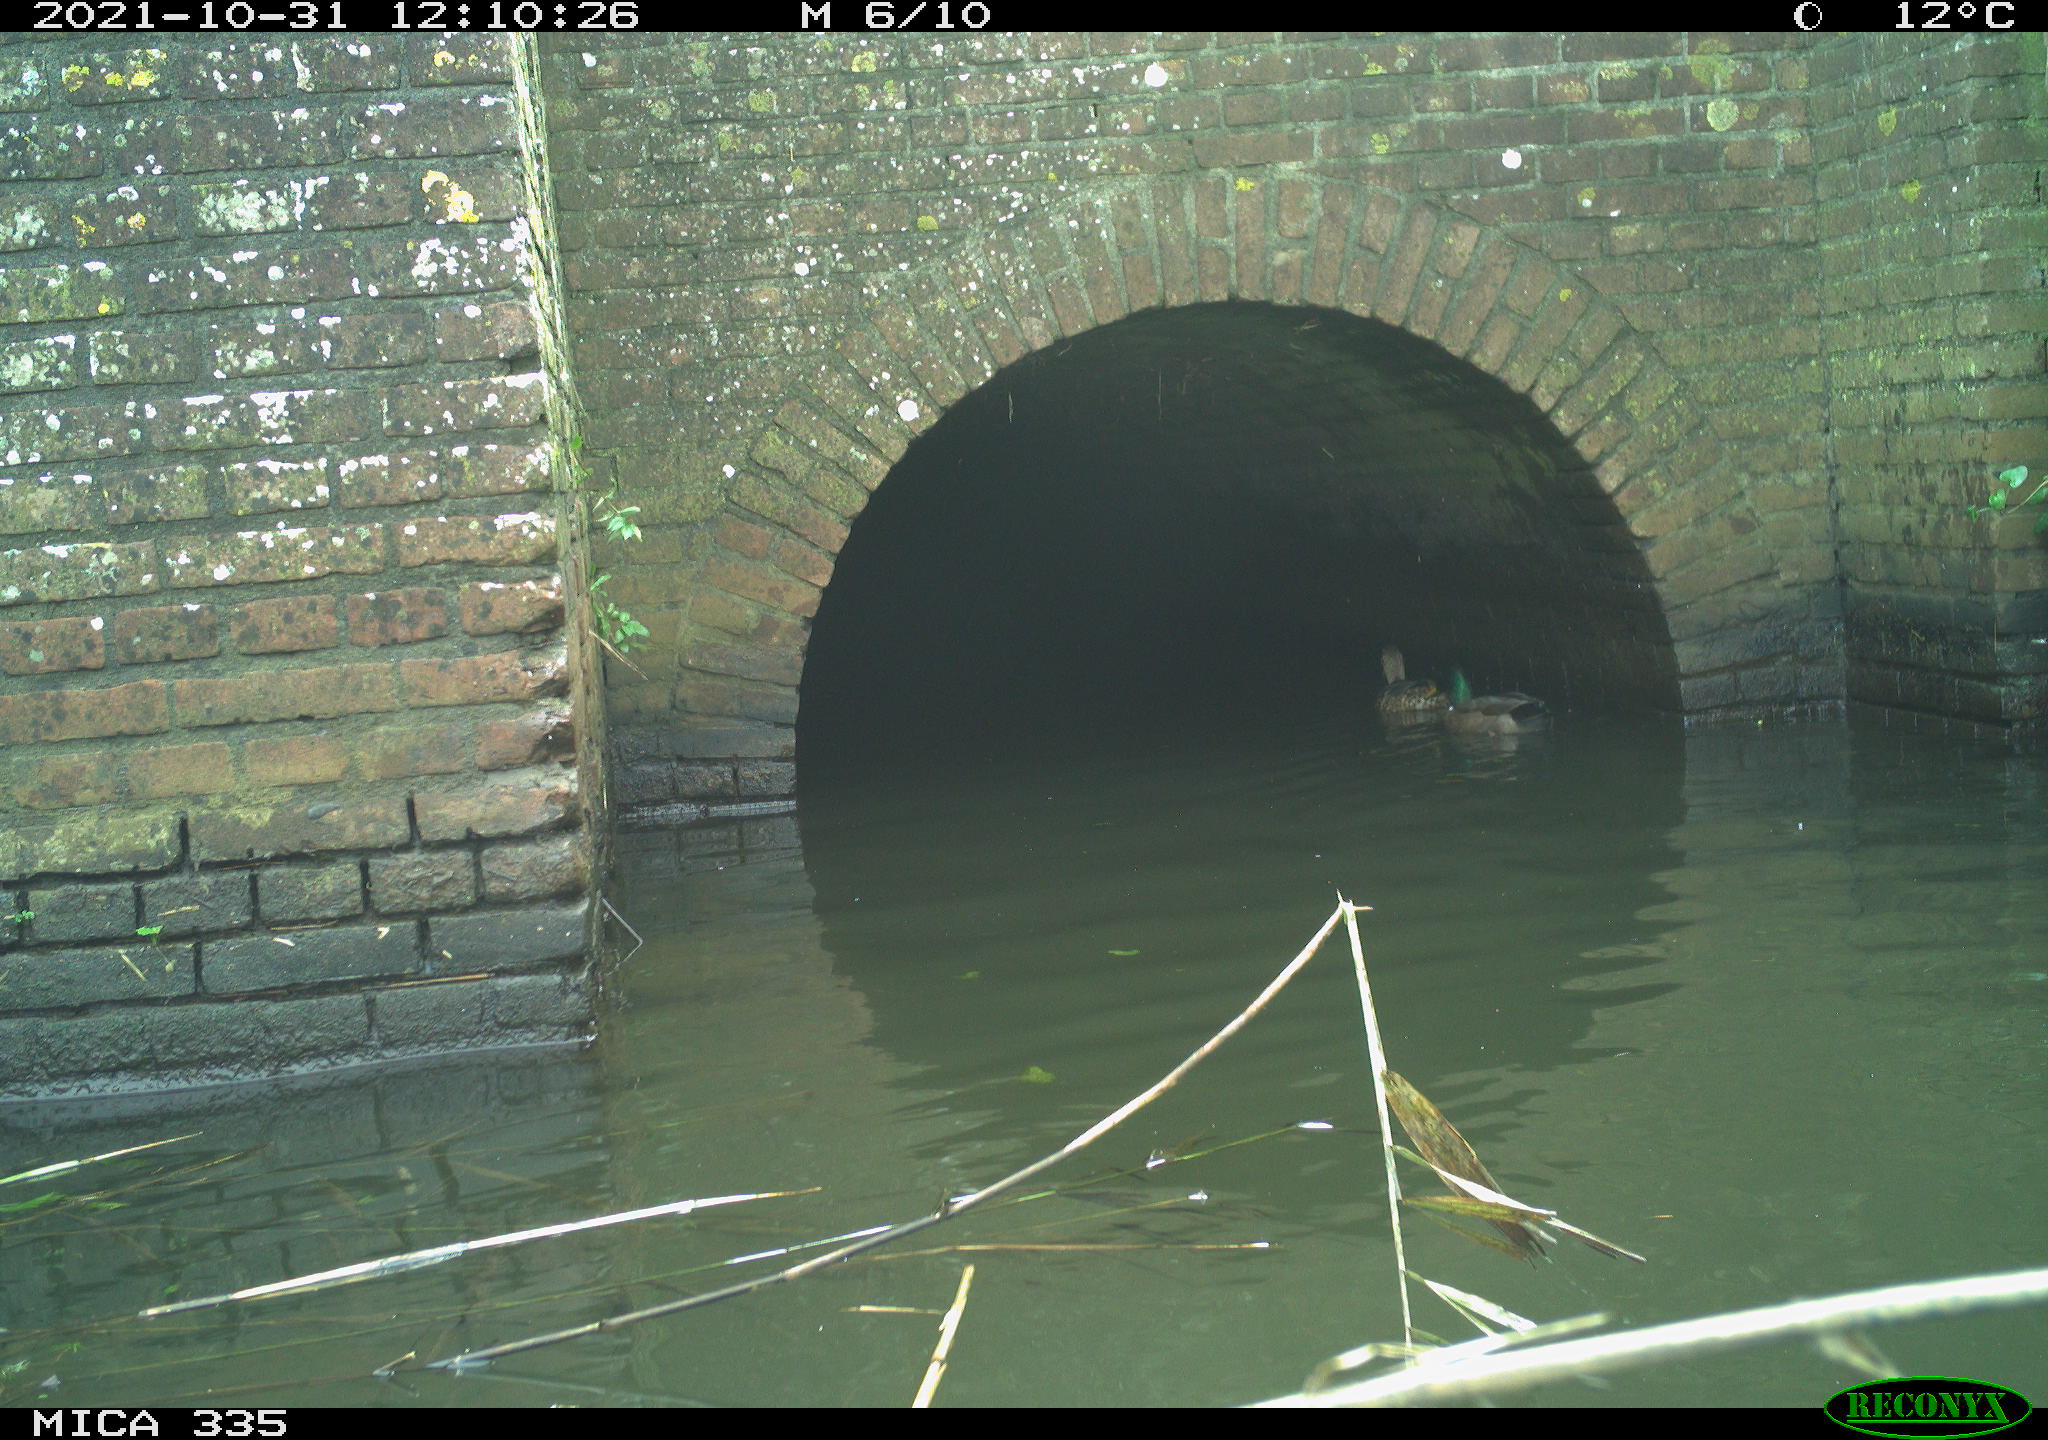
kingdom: Animalia
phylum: Chordata
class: Aves
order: Anseriformes
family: Anatidae
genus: Anas
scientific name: Anas platyrhynchos
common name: Mallard
